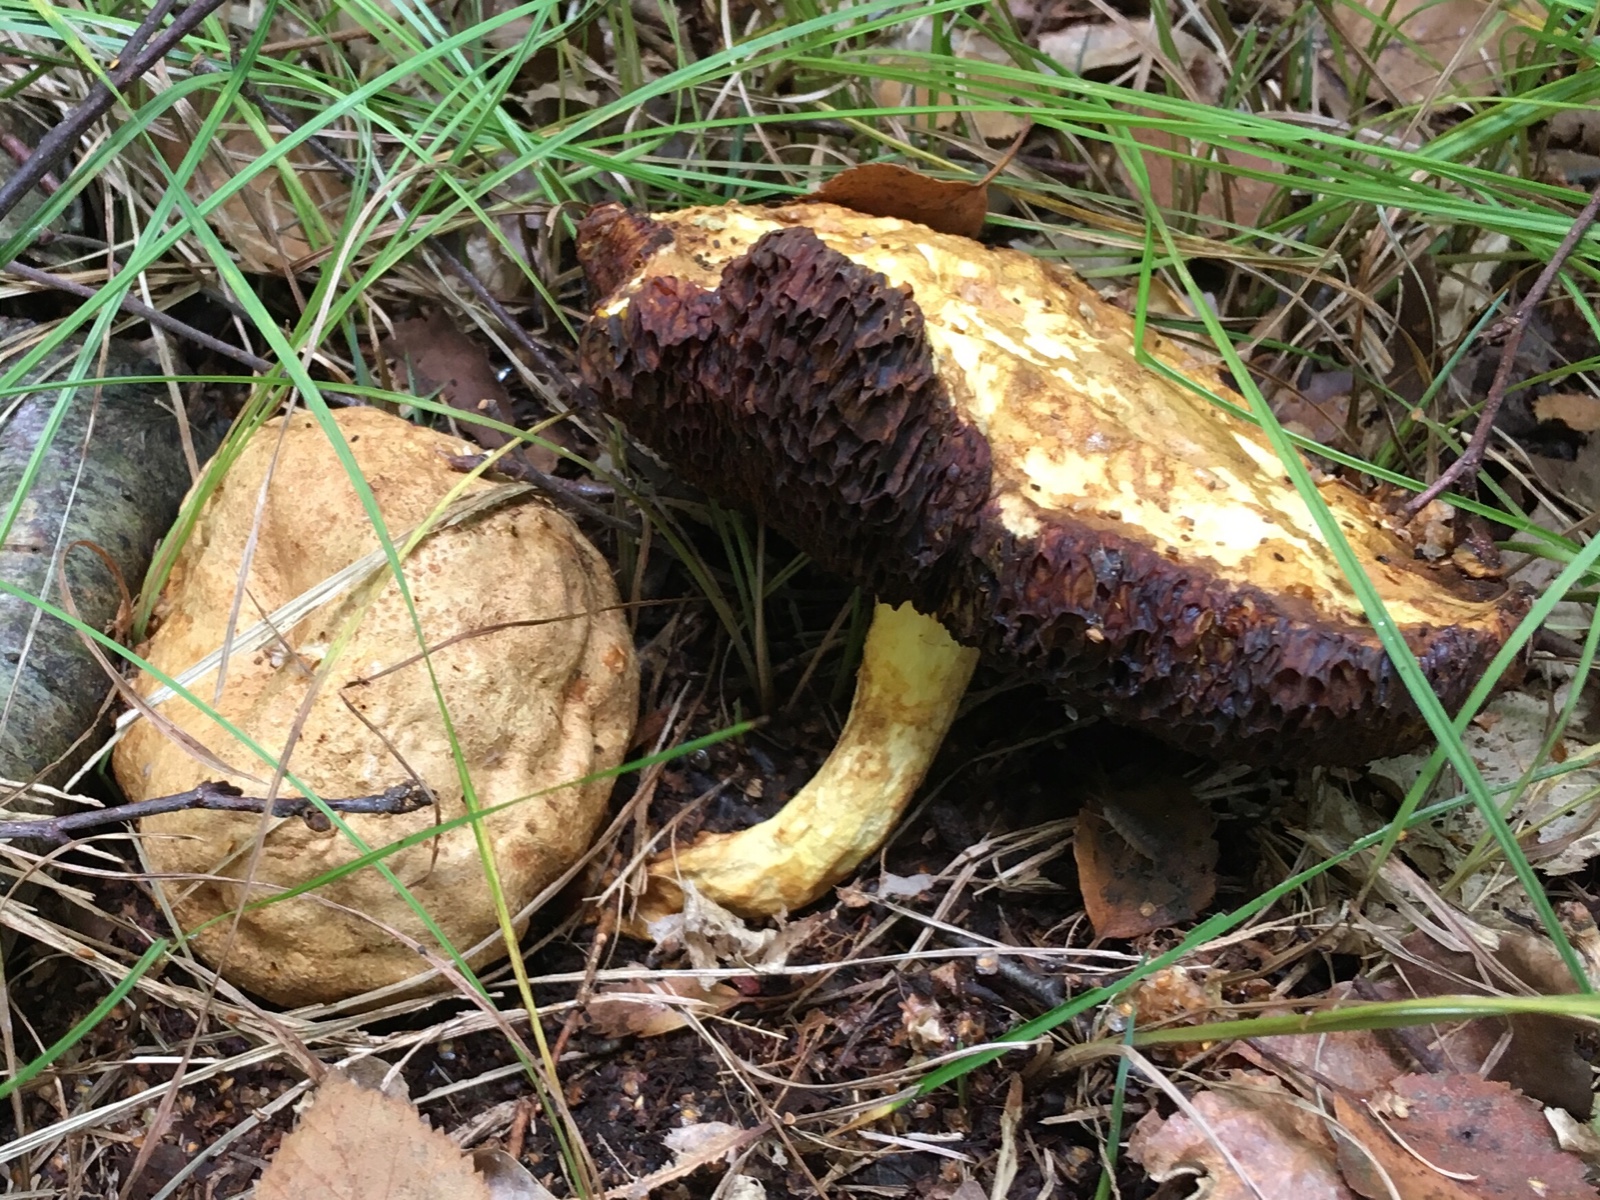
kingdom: Fungi
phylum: Basidiomycota
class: Agaricomycetes
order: Boletales
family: Boletaceae
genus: Pseudoboletus
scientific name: Pseudoboletus parasiticus
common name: snyltende rørhat
